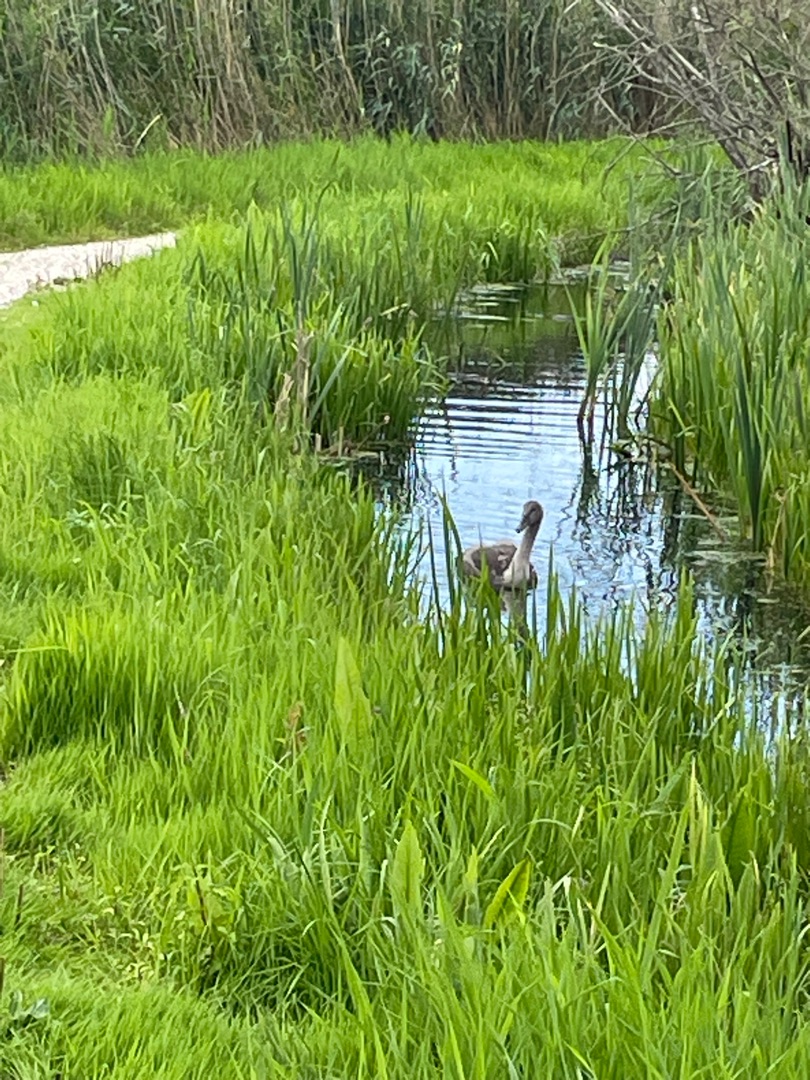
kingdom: Animalia
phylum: Chordata
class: Aves
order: Anseriformes
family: Anatidae
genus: Cygnus
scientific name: Cygnus olor
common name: Knopsvane
